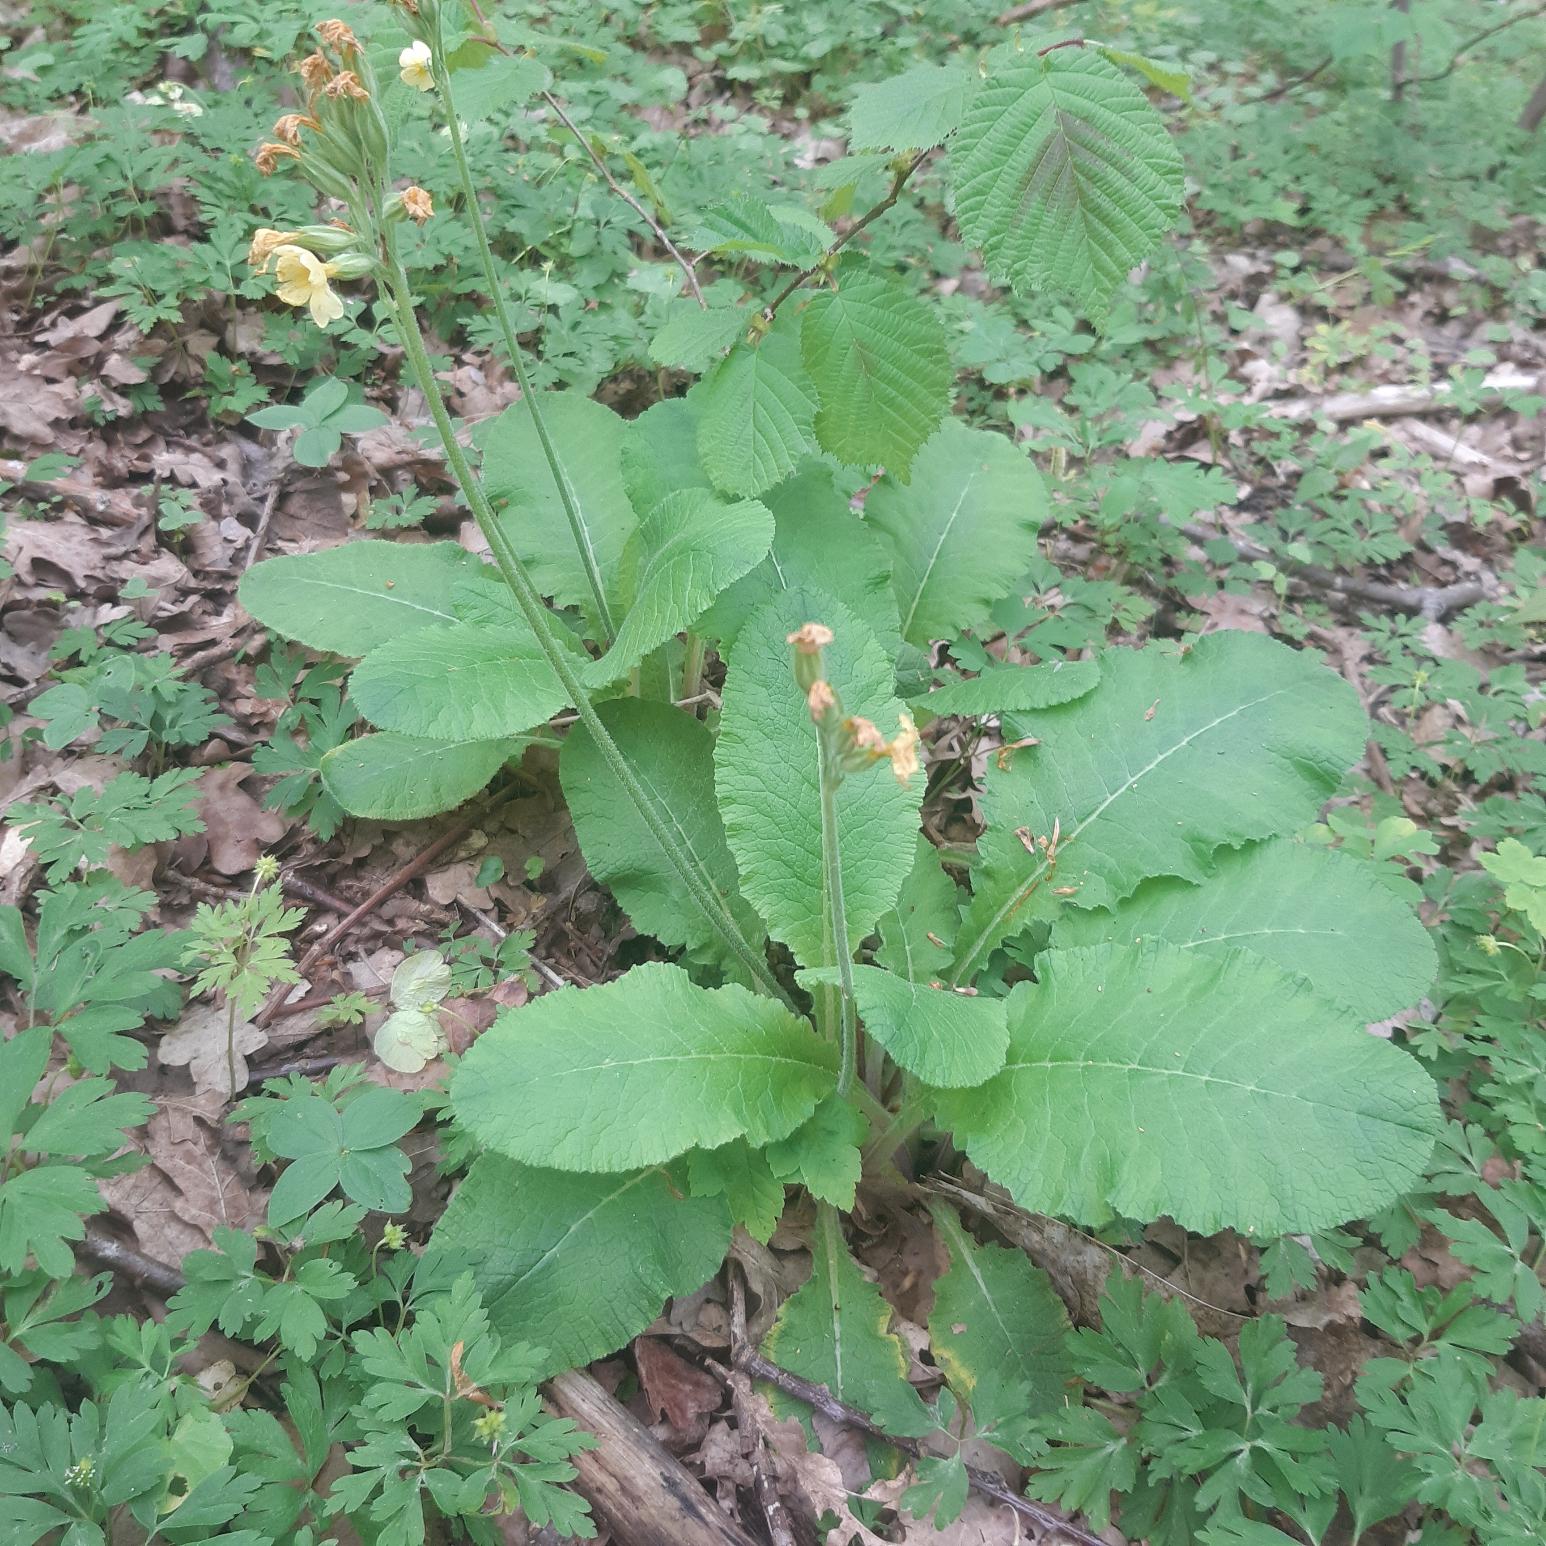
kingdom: Plantae
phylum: Tracheophyta
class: Magnoliopsida
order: Ericales
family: Primulaceae
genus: Primula
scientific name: Primula elatior
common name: Fladkravet kodriver
